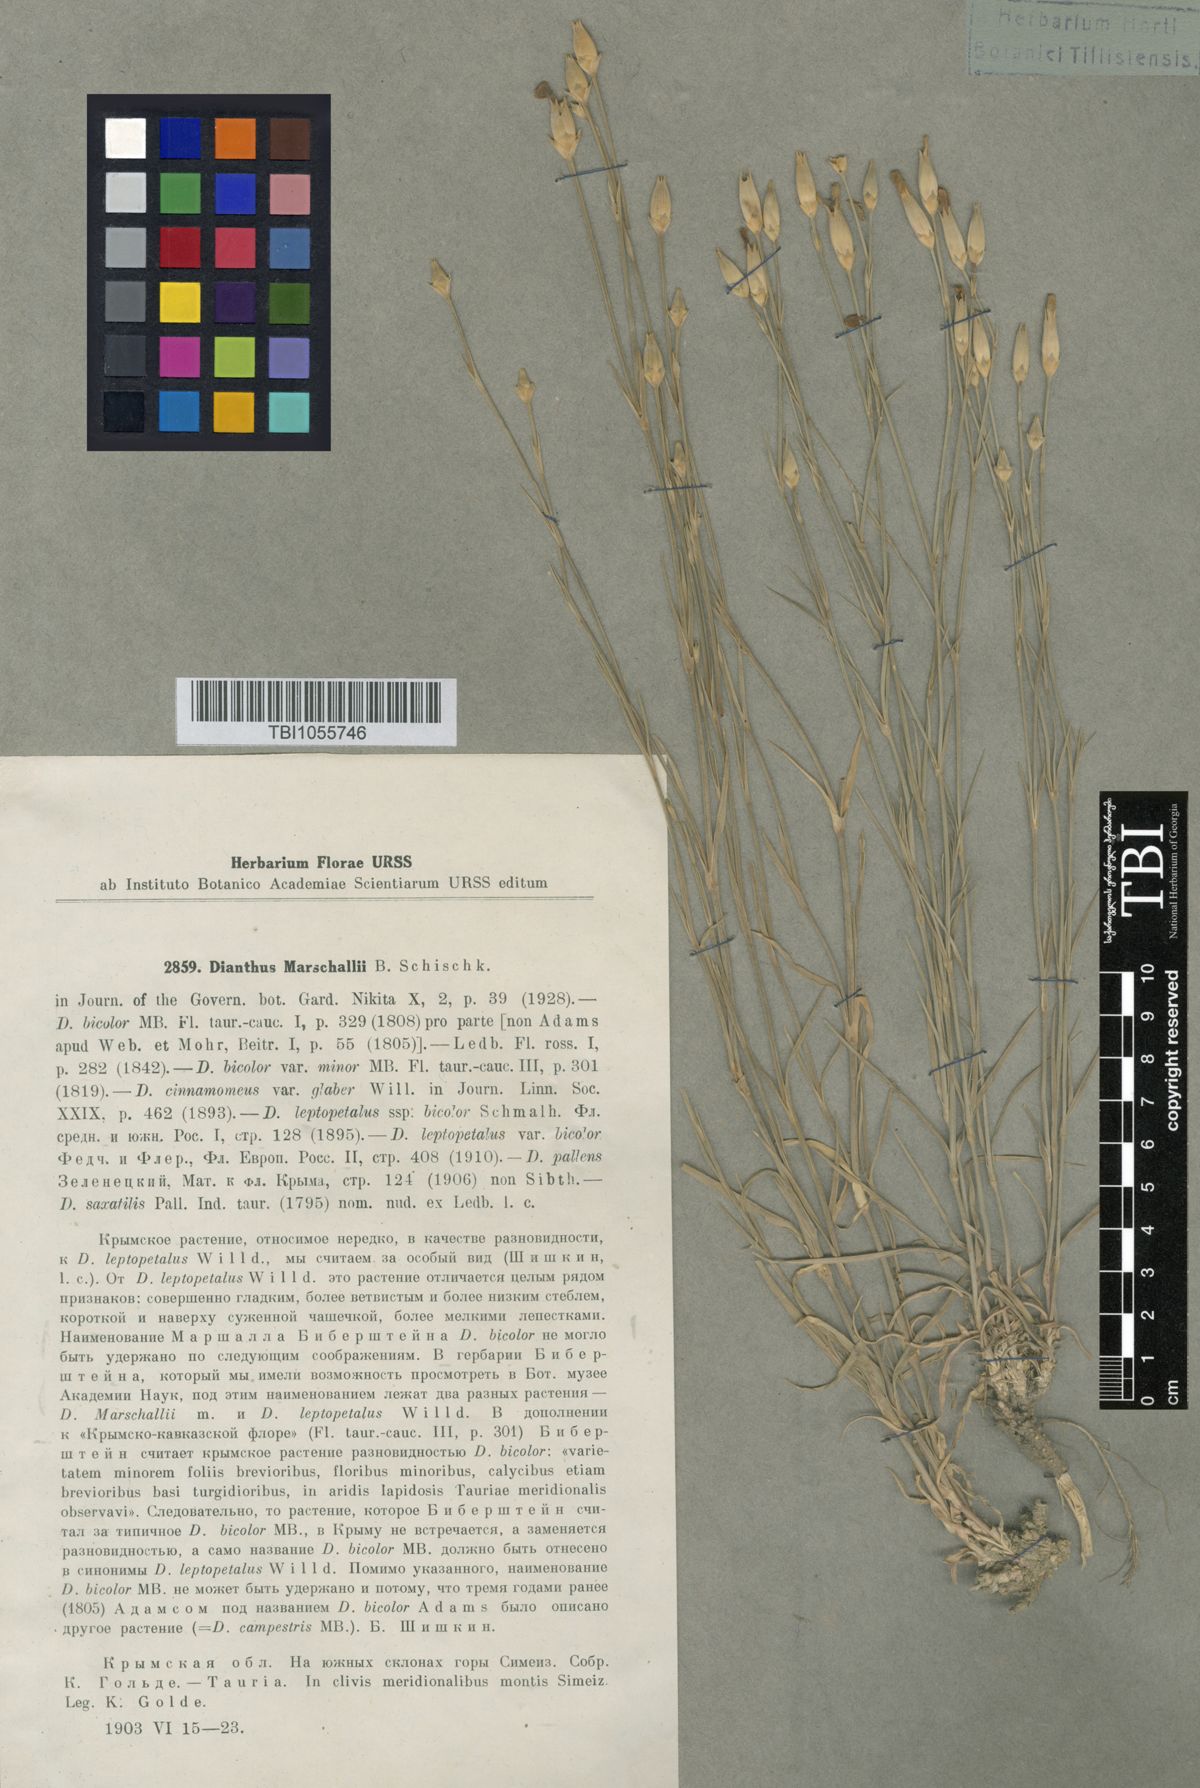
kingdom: Plantae
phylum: Tracheophyta
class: Magnoliopsida
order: Caryophyllales
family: Caryophyllaceae
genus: Dianthus
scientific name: Dianthus marschallii
